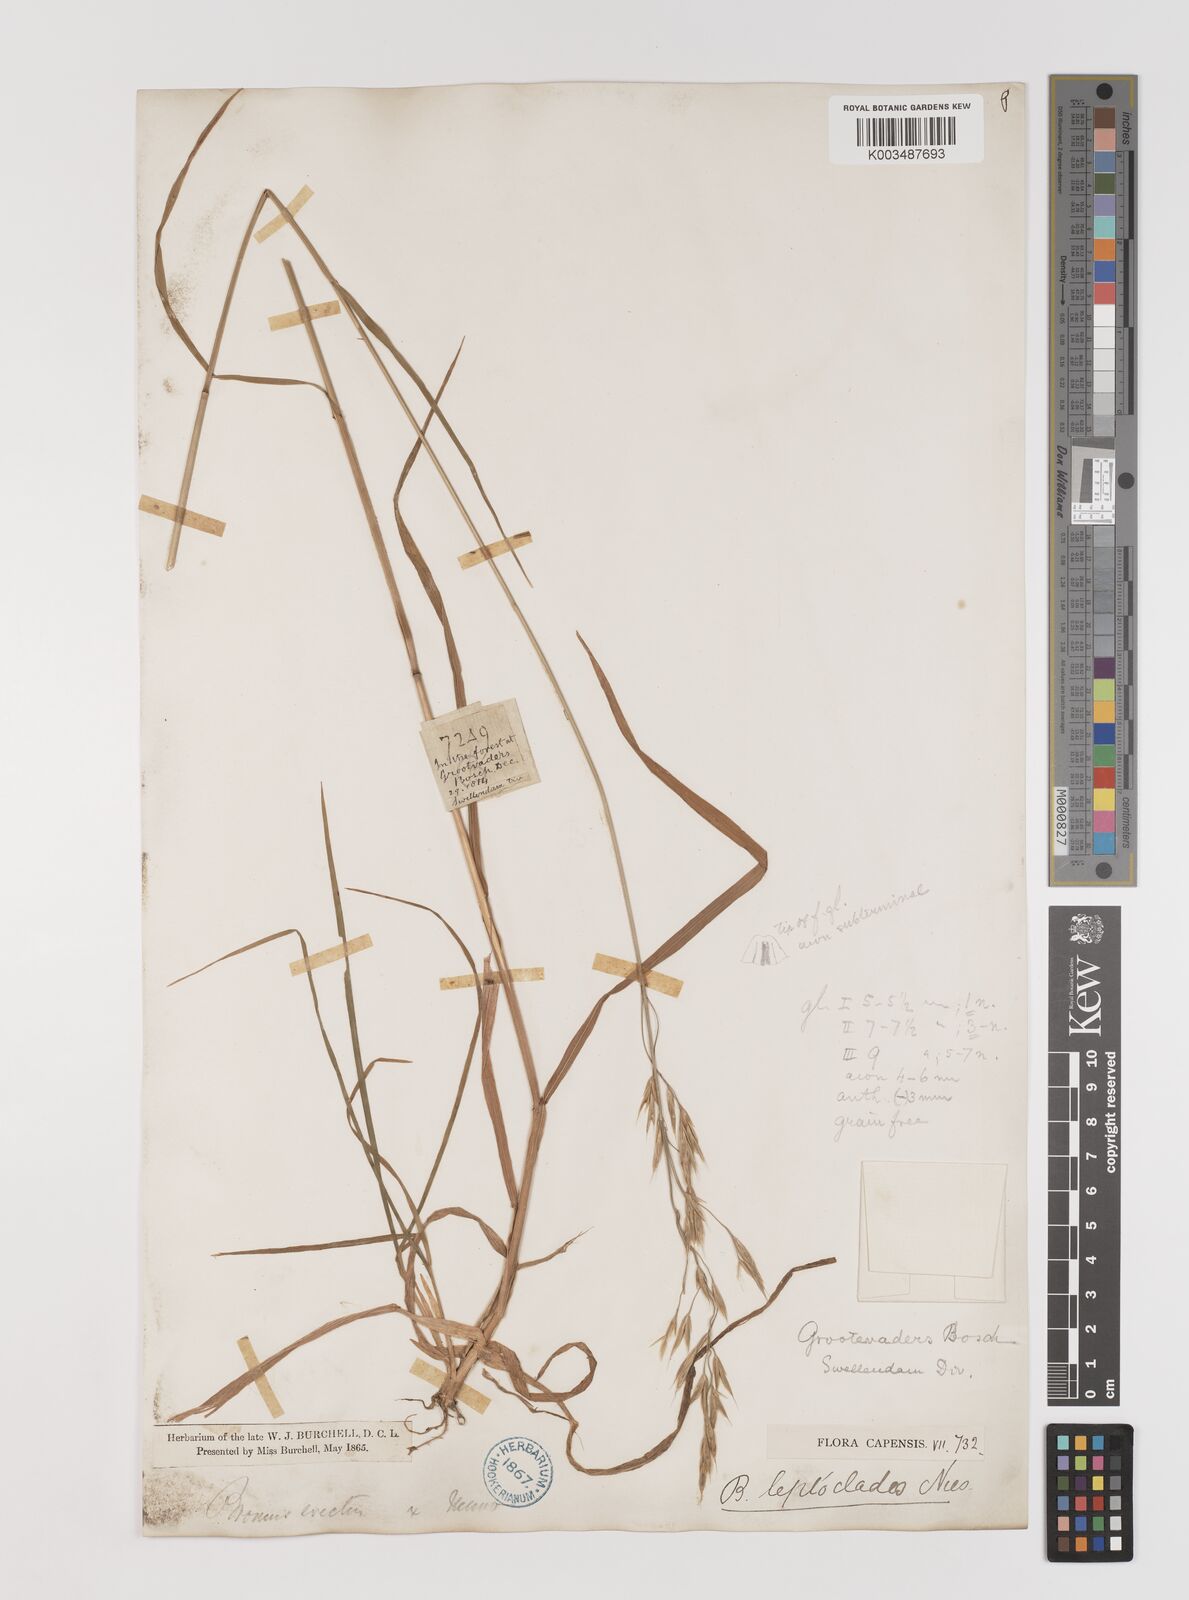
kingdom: Plantae
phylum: Tracheophyta
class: Liliopsida
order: Poales
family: Poaceae
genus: Bromus
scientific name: Bromus leptoclados
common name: Mountain bromegrass
